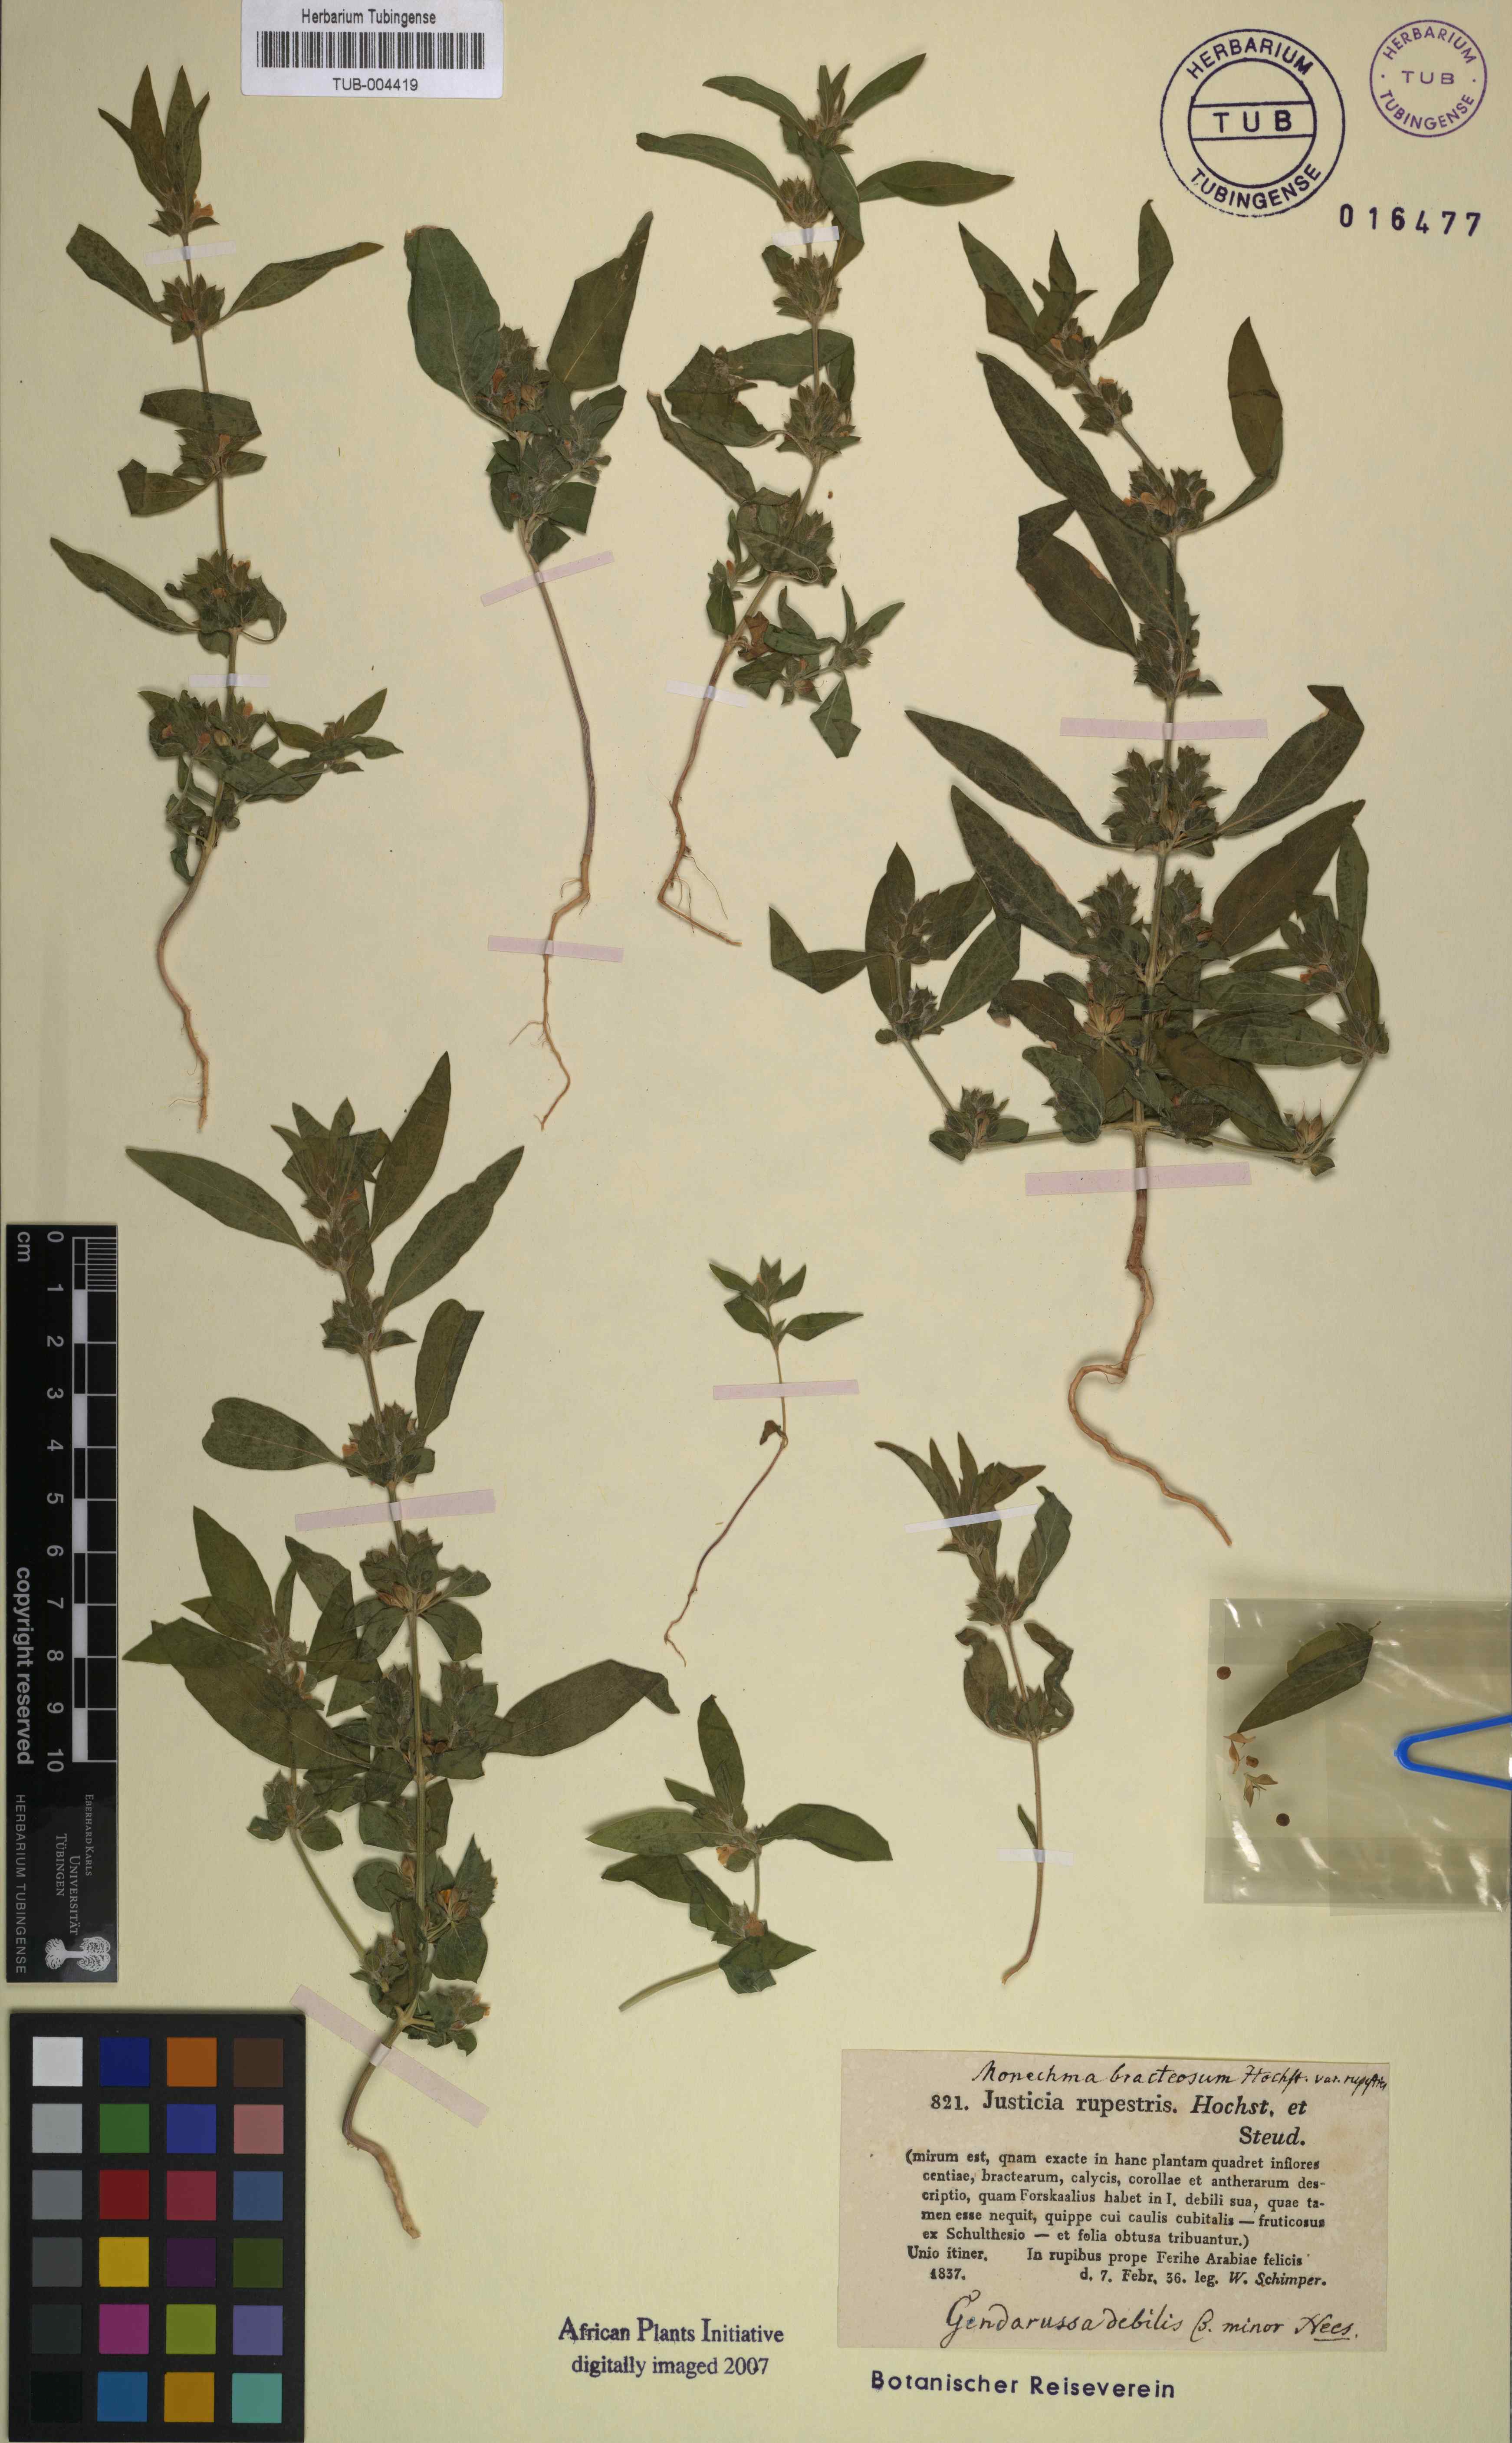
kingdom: Plantae
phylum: Tracheophyta
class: Magnoliopsida
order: Lamiales
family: Acanthaceae
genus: Monechma
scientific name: Monechma debile
